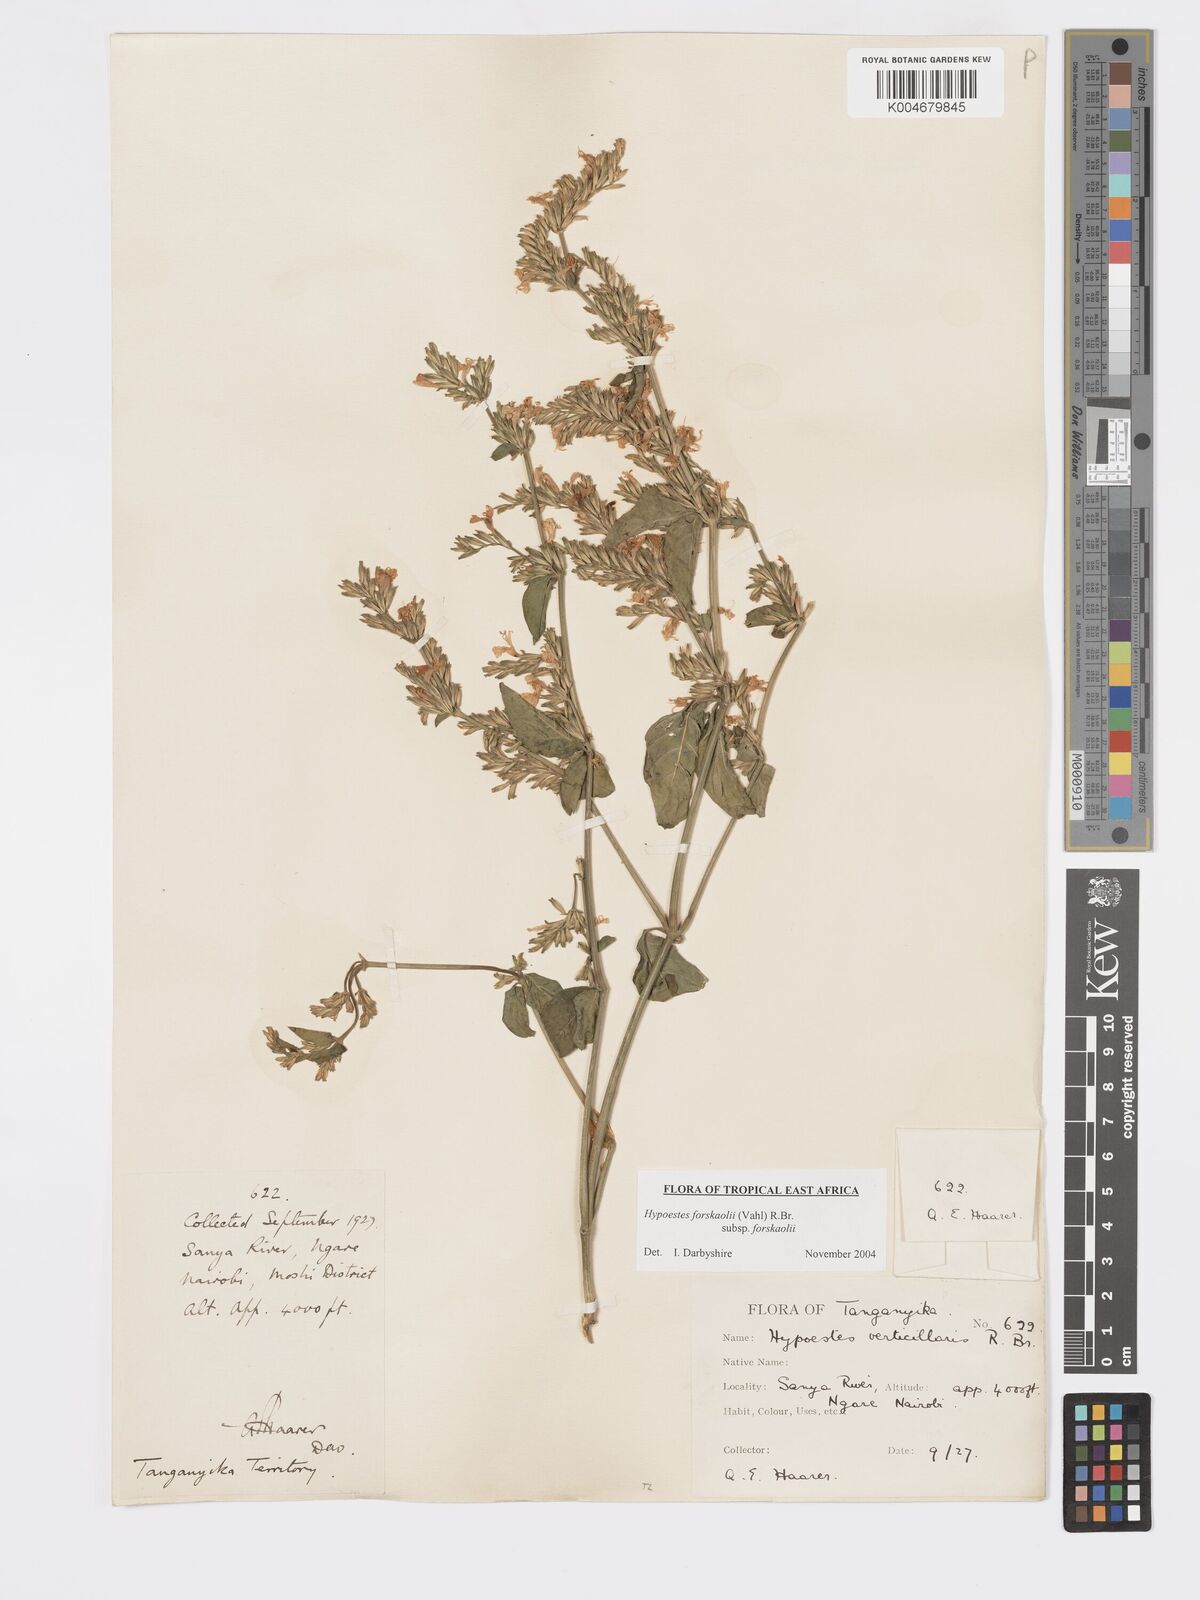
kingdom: Plantae
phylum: Tracheophyta
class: Magnoliopsida
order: Lamiales
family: Acanthaceae
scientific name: Acanthaceae
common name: Acanthaceae
